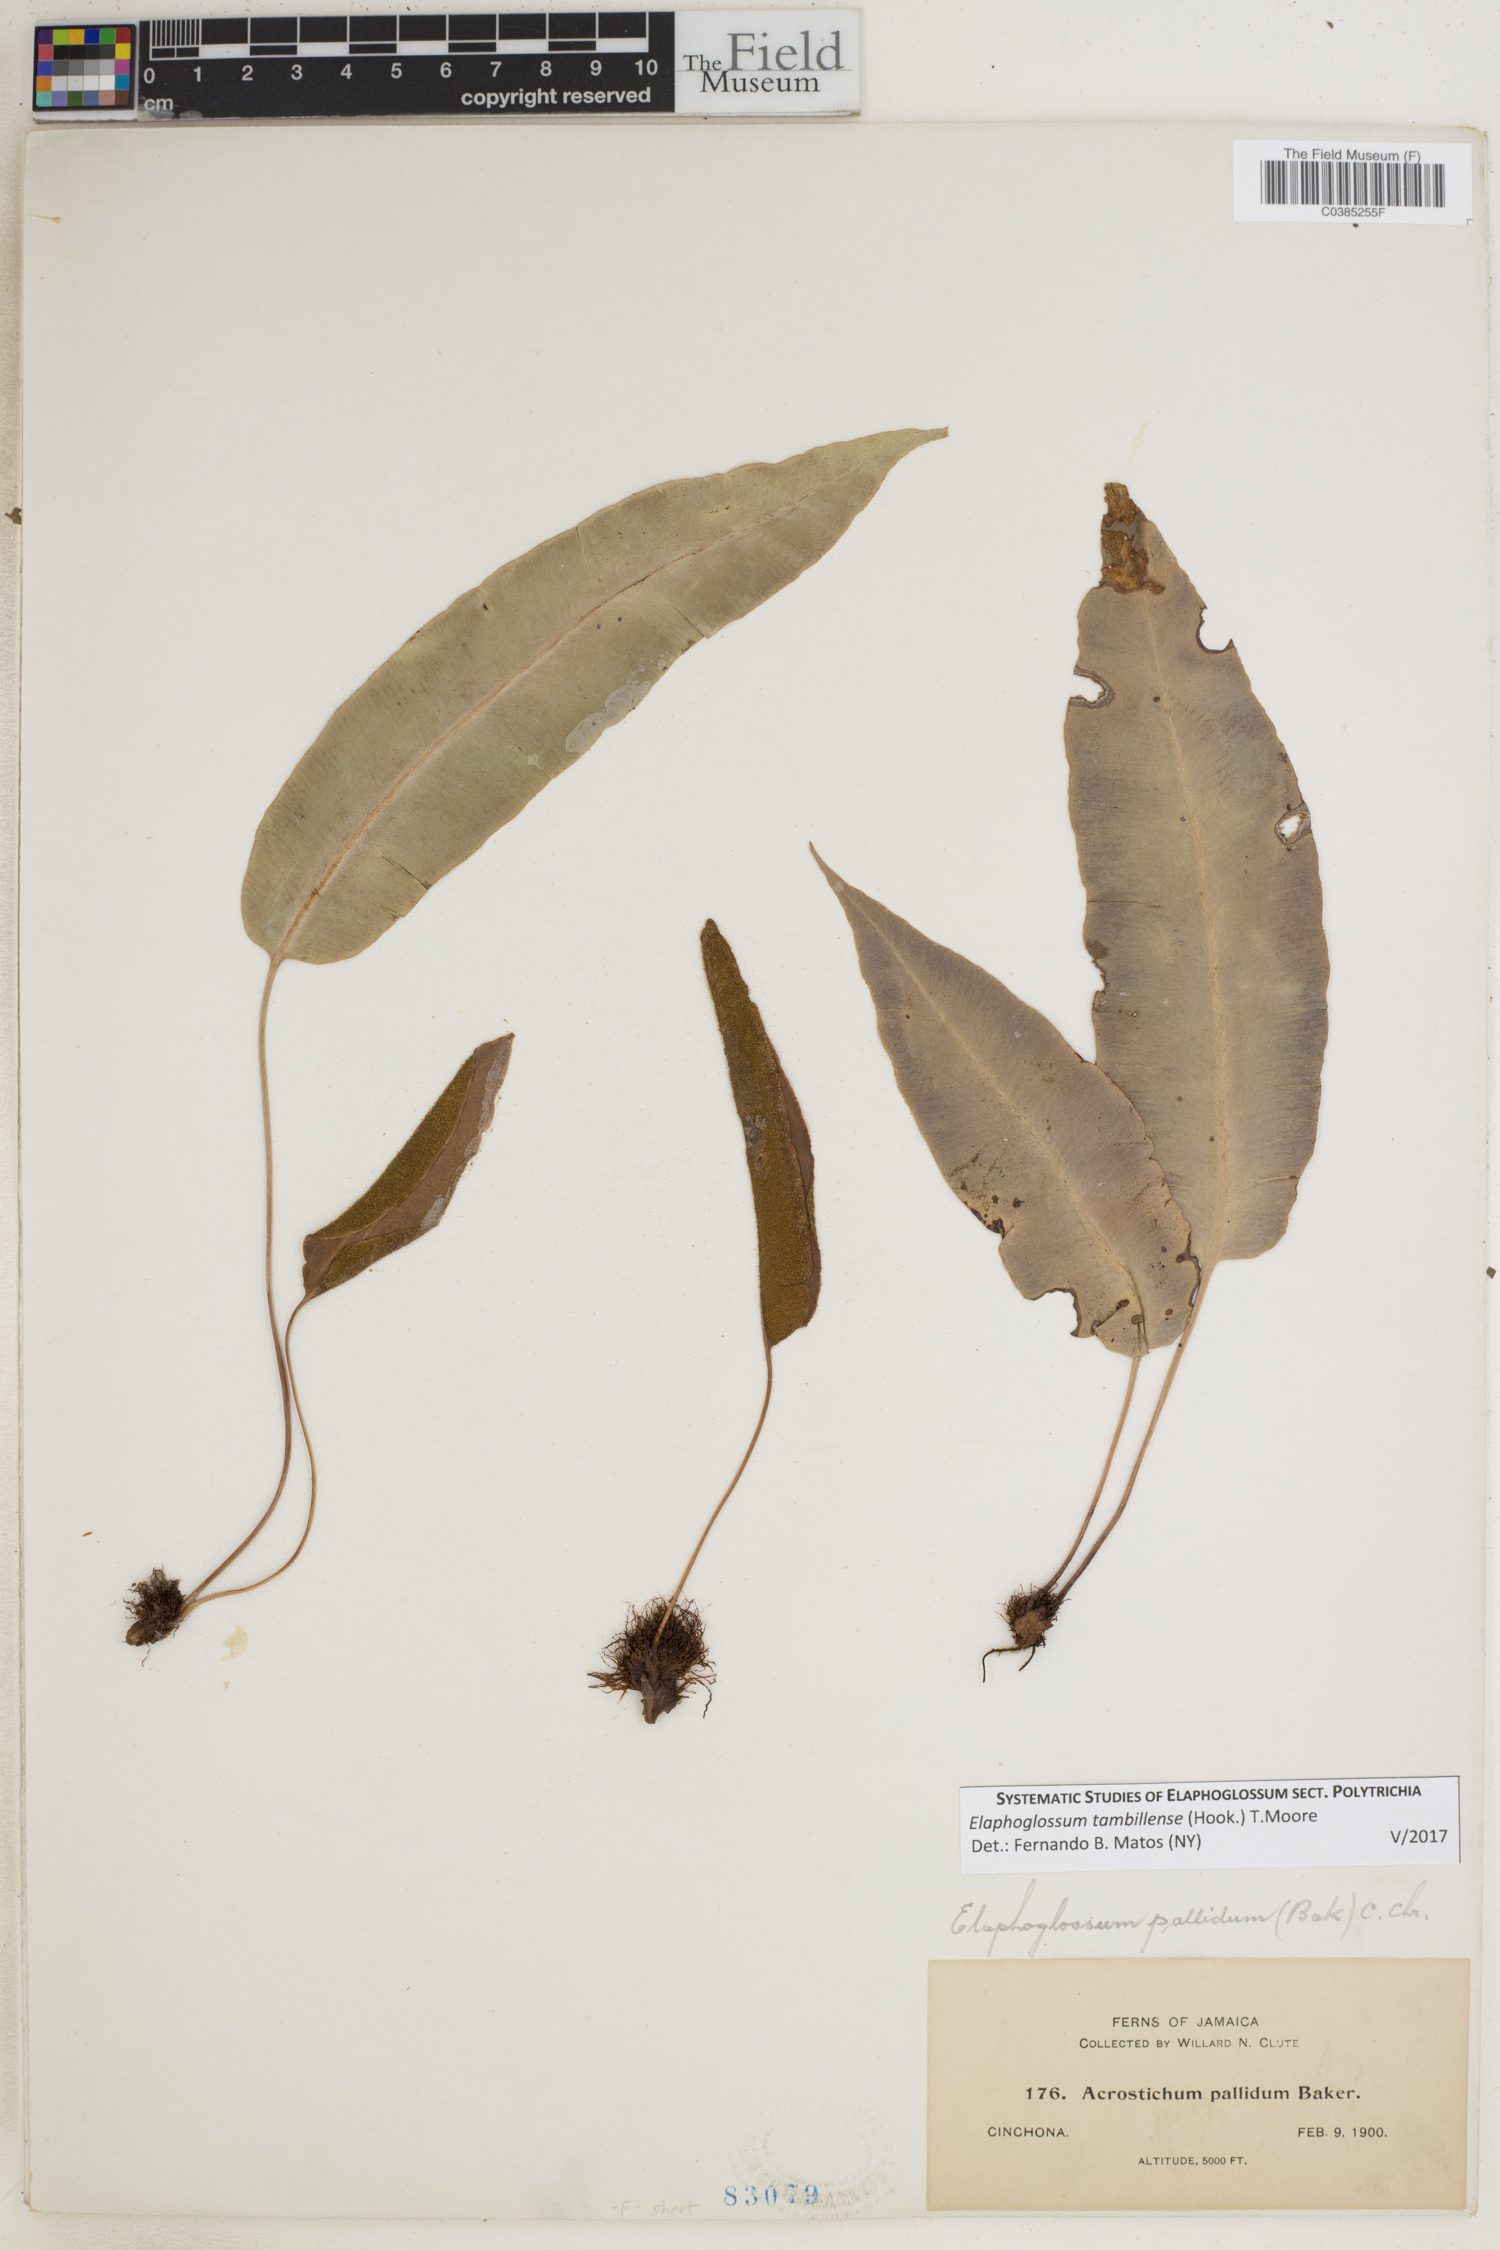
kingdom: Plantae
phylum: Tracheophyta
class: Polypodiopsida
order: Polypodiales
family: Dryopteridaceae
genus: Elaphoglossum
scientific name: Elaphoglossum tambillense
